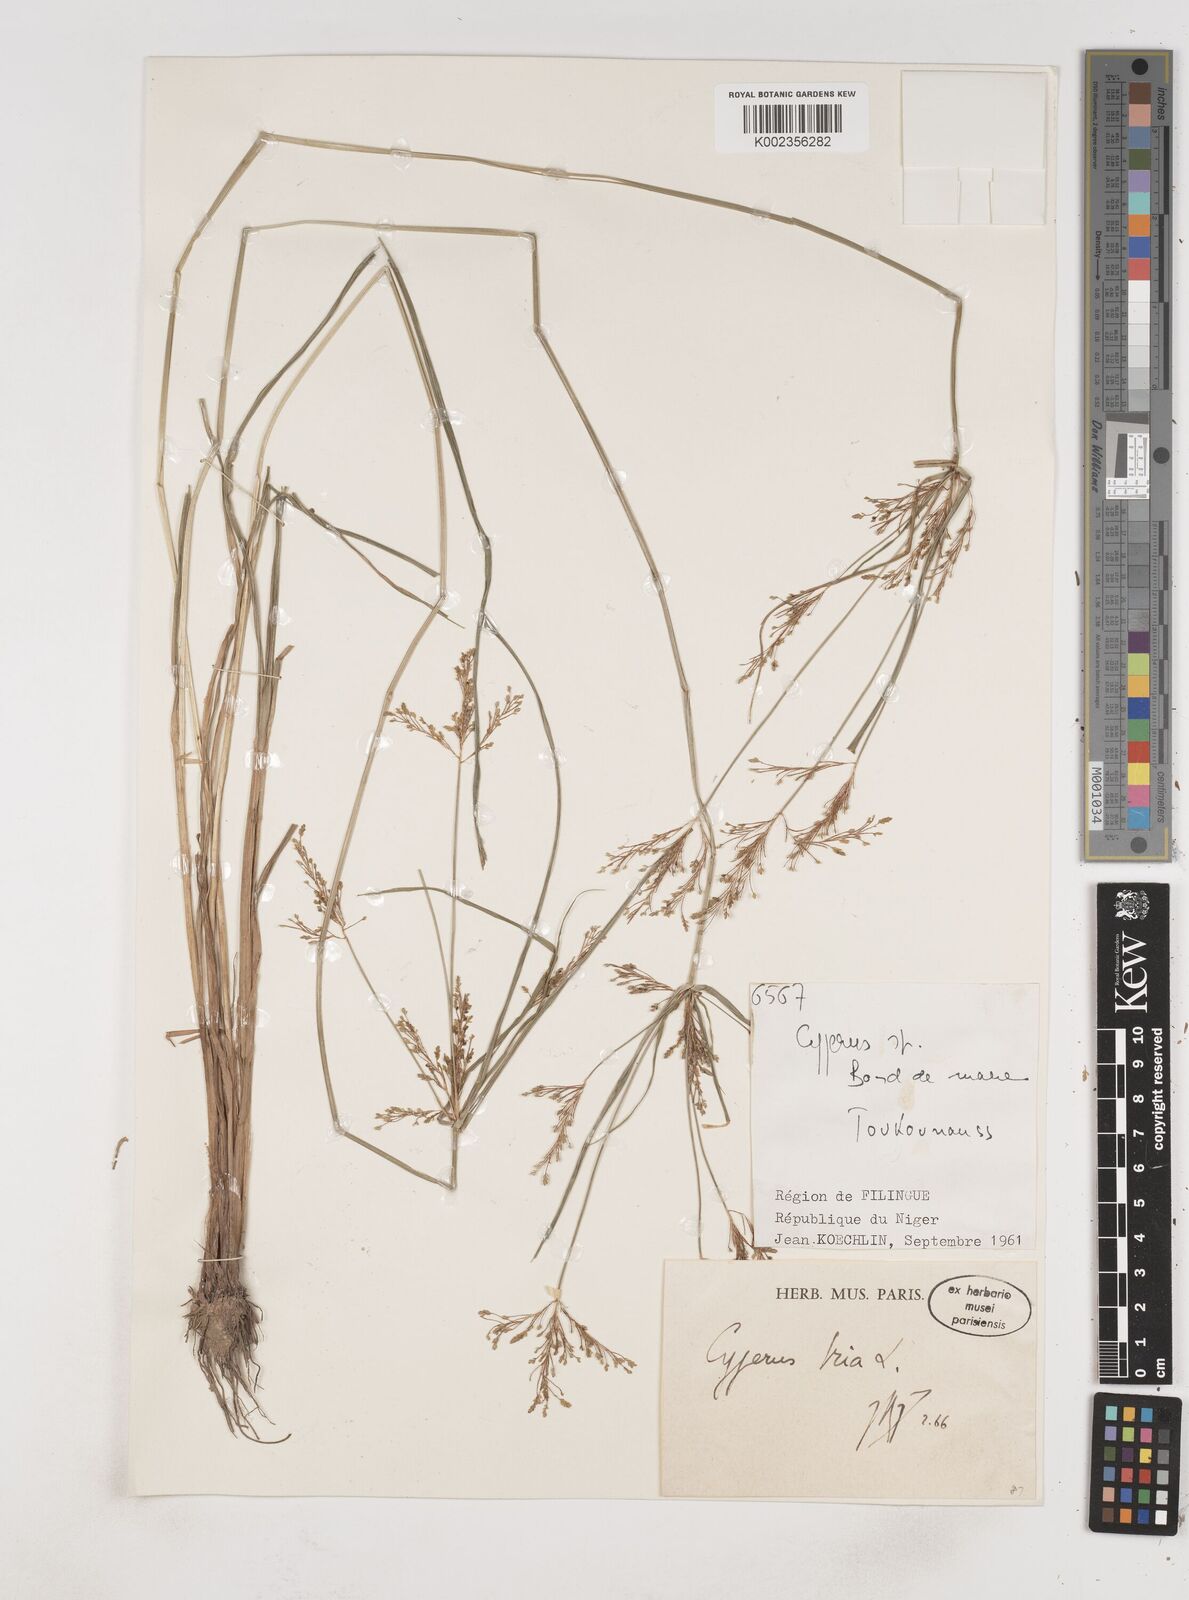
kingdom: Plantae
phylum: Tracheophyta
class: Liliopsida
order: Poales
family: Cyperaceae
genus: Cyperus
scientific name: Cyperus iria
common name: Ricefield flatsedge
